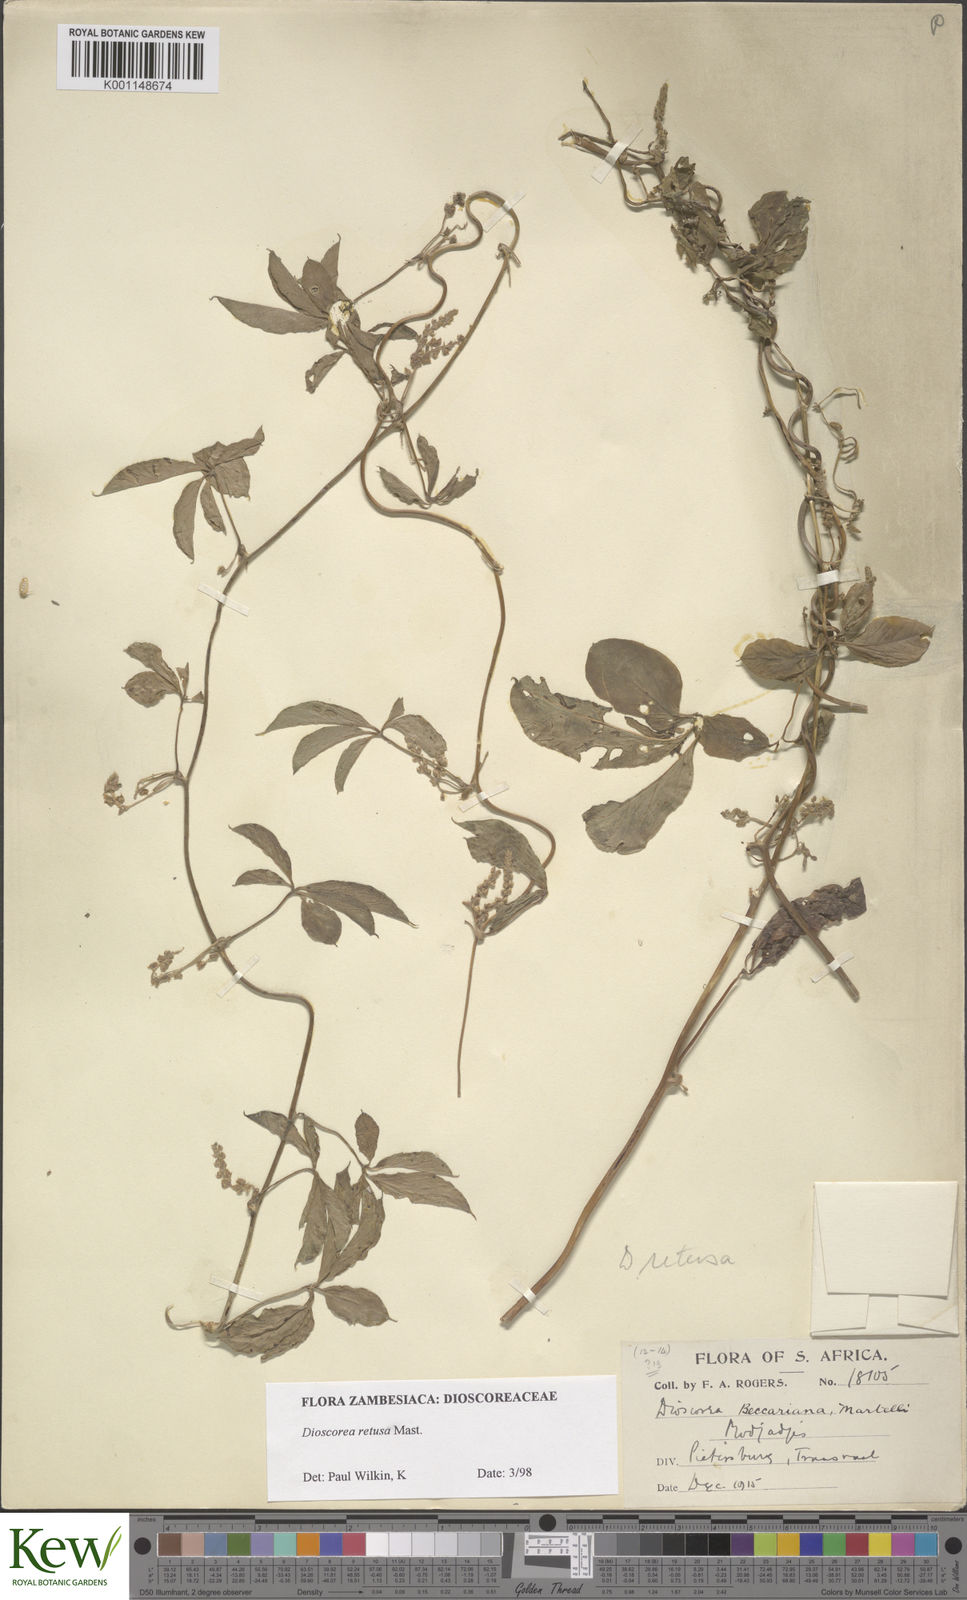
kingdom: Plantae
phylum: Tracheophyta
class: Liliopsida
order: Dioscoreales
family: Dioscoreaceae
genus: Dioscorea
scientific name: Dioscorea retusa
